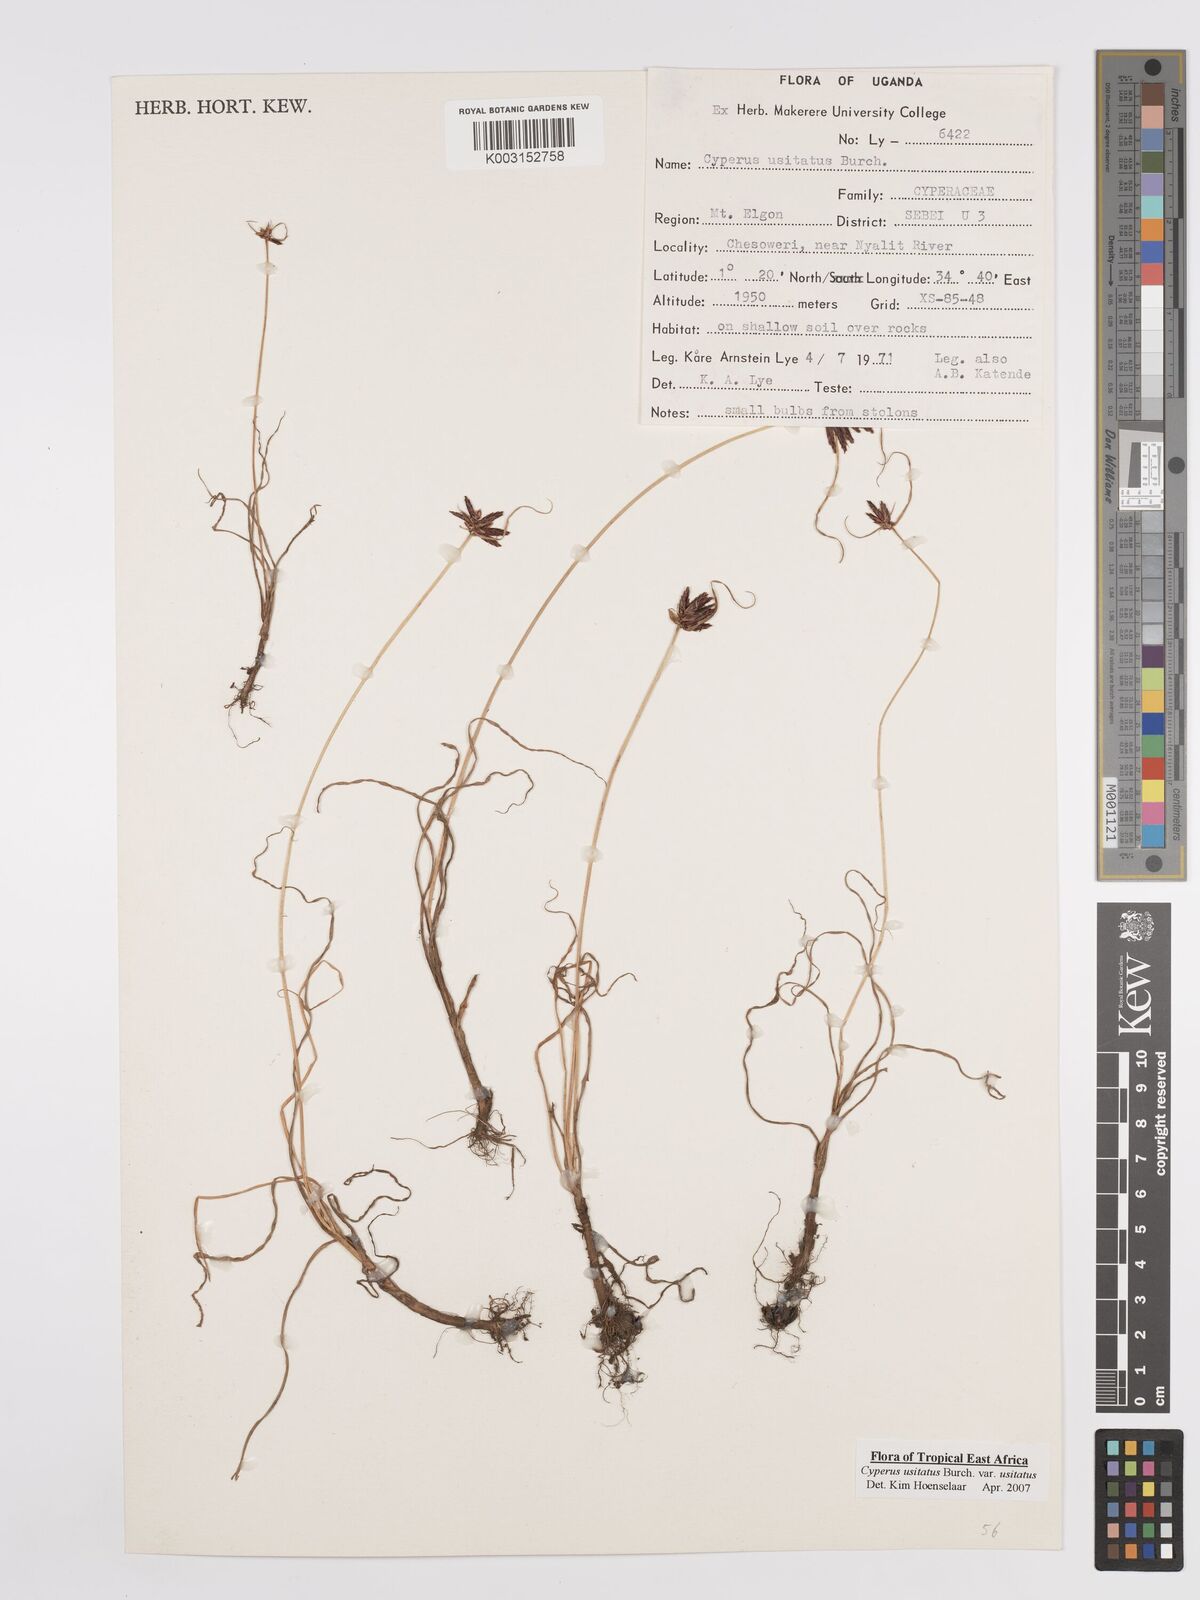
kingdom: Plantae
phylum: Tracheophyta
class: Liliopsida
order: Poales
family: Cyperaceae
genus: Cyperus
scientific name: Cyperus usitatus
